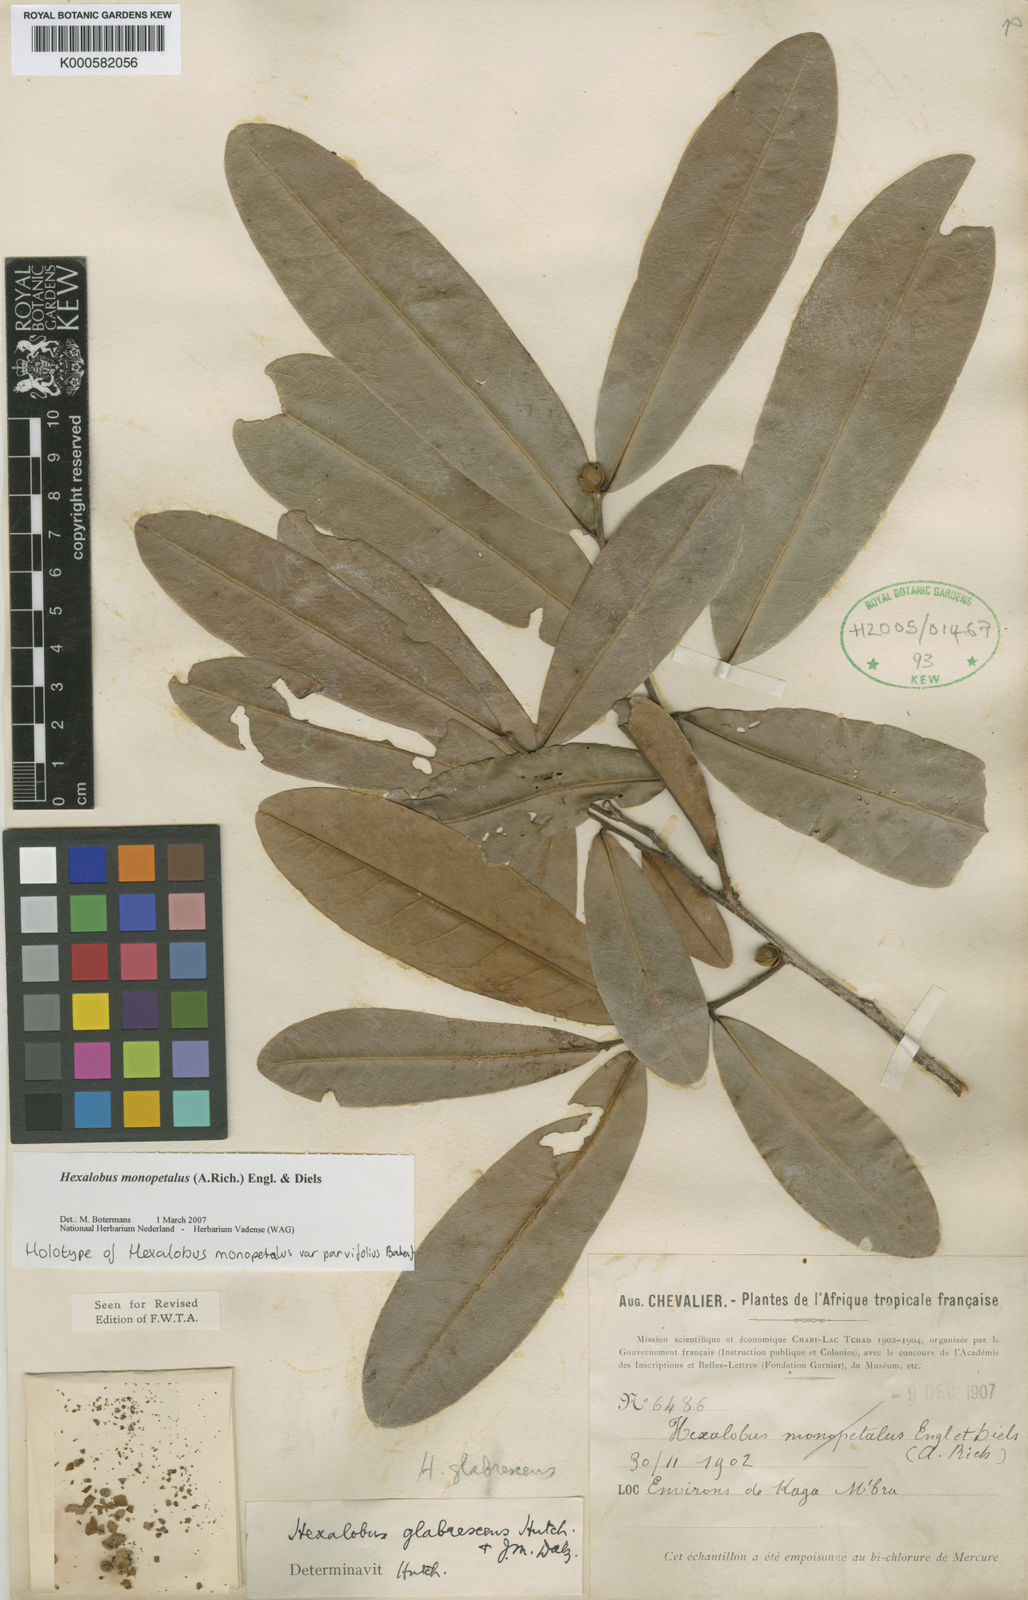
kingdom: Plantae
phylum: Tracheophyta
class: Magnoliopsida
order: Magnoliales
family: Annonaceae
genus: Hexalobus
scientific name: Hexalobus monopetalus
